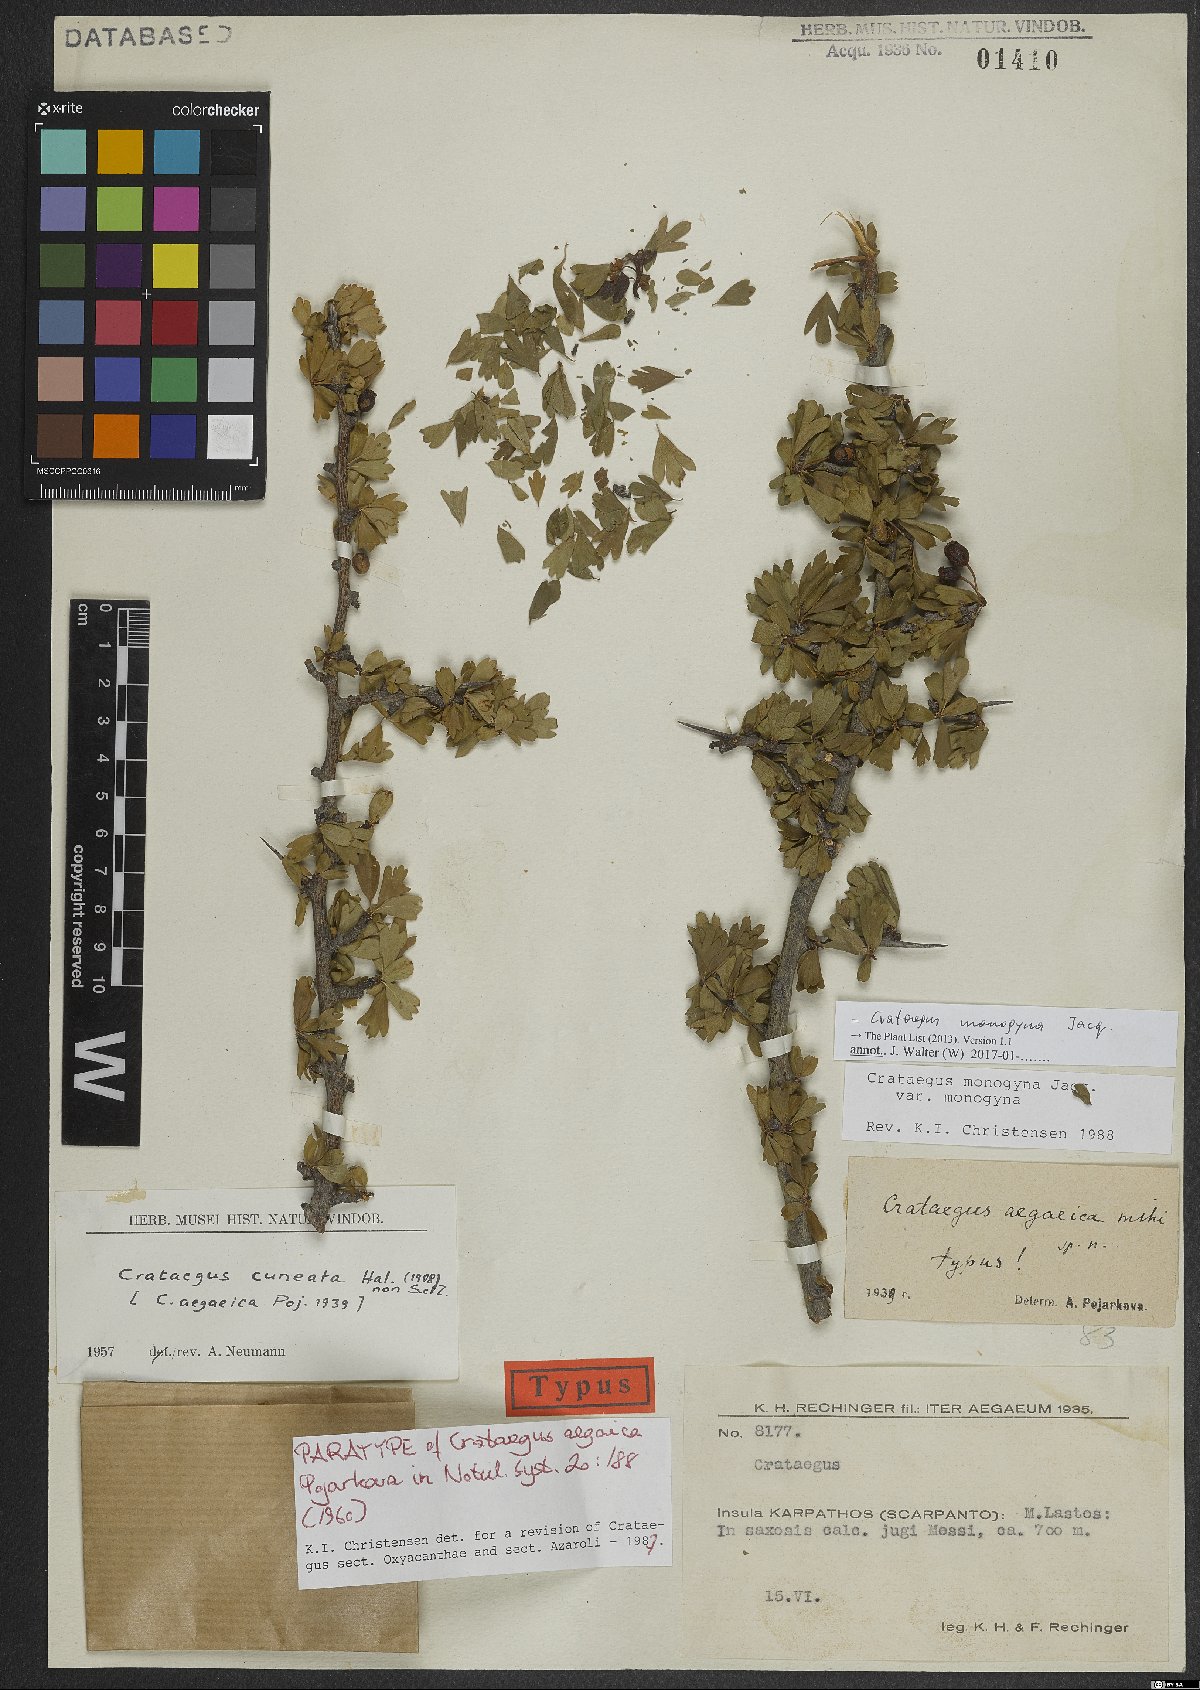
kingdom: Plantae
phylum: Tracheophyta
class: Magnoliopsida
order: Rosales
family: Rosaceae
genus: Crataegus
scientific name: Crataegus monogyna
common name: Hawthorn
